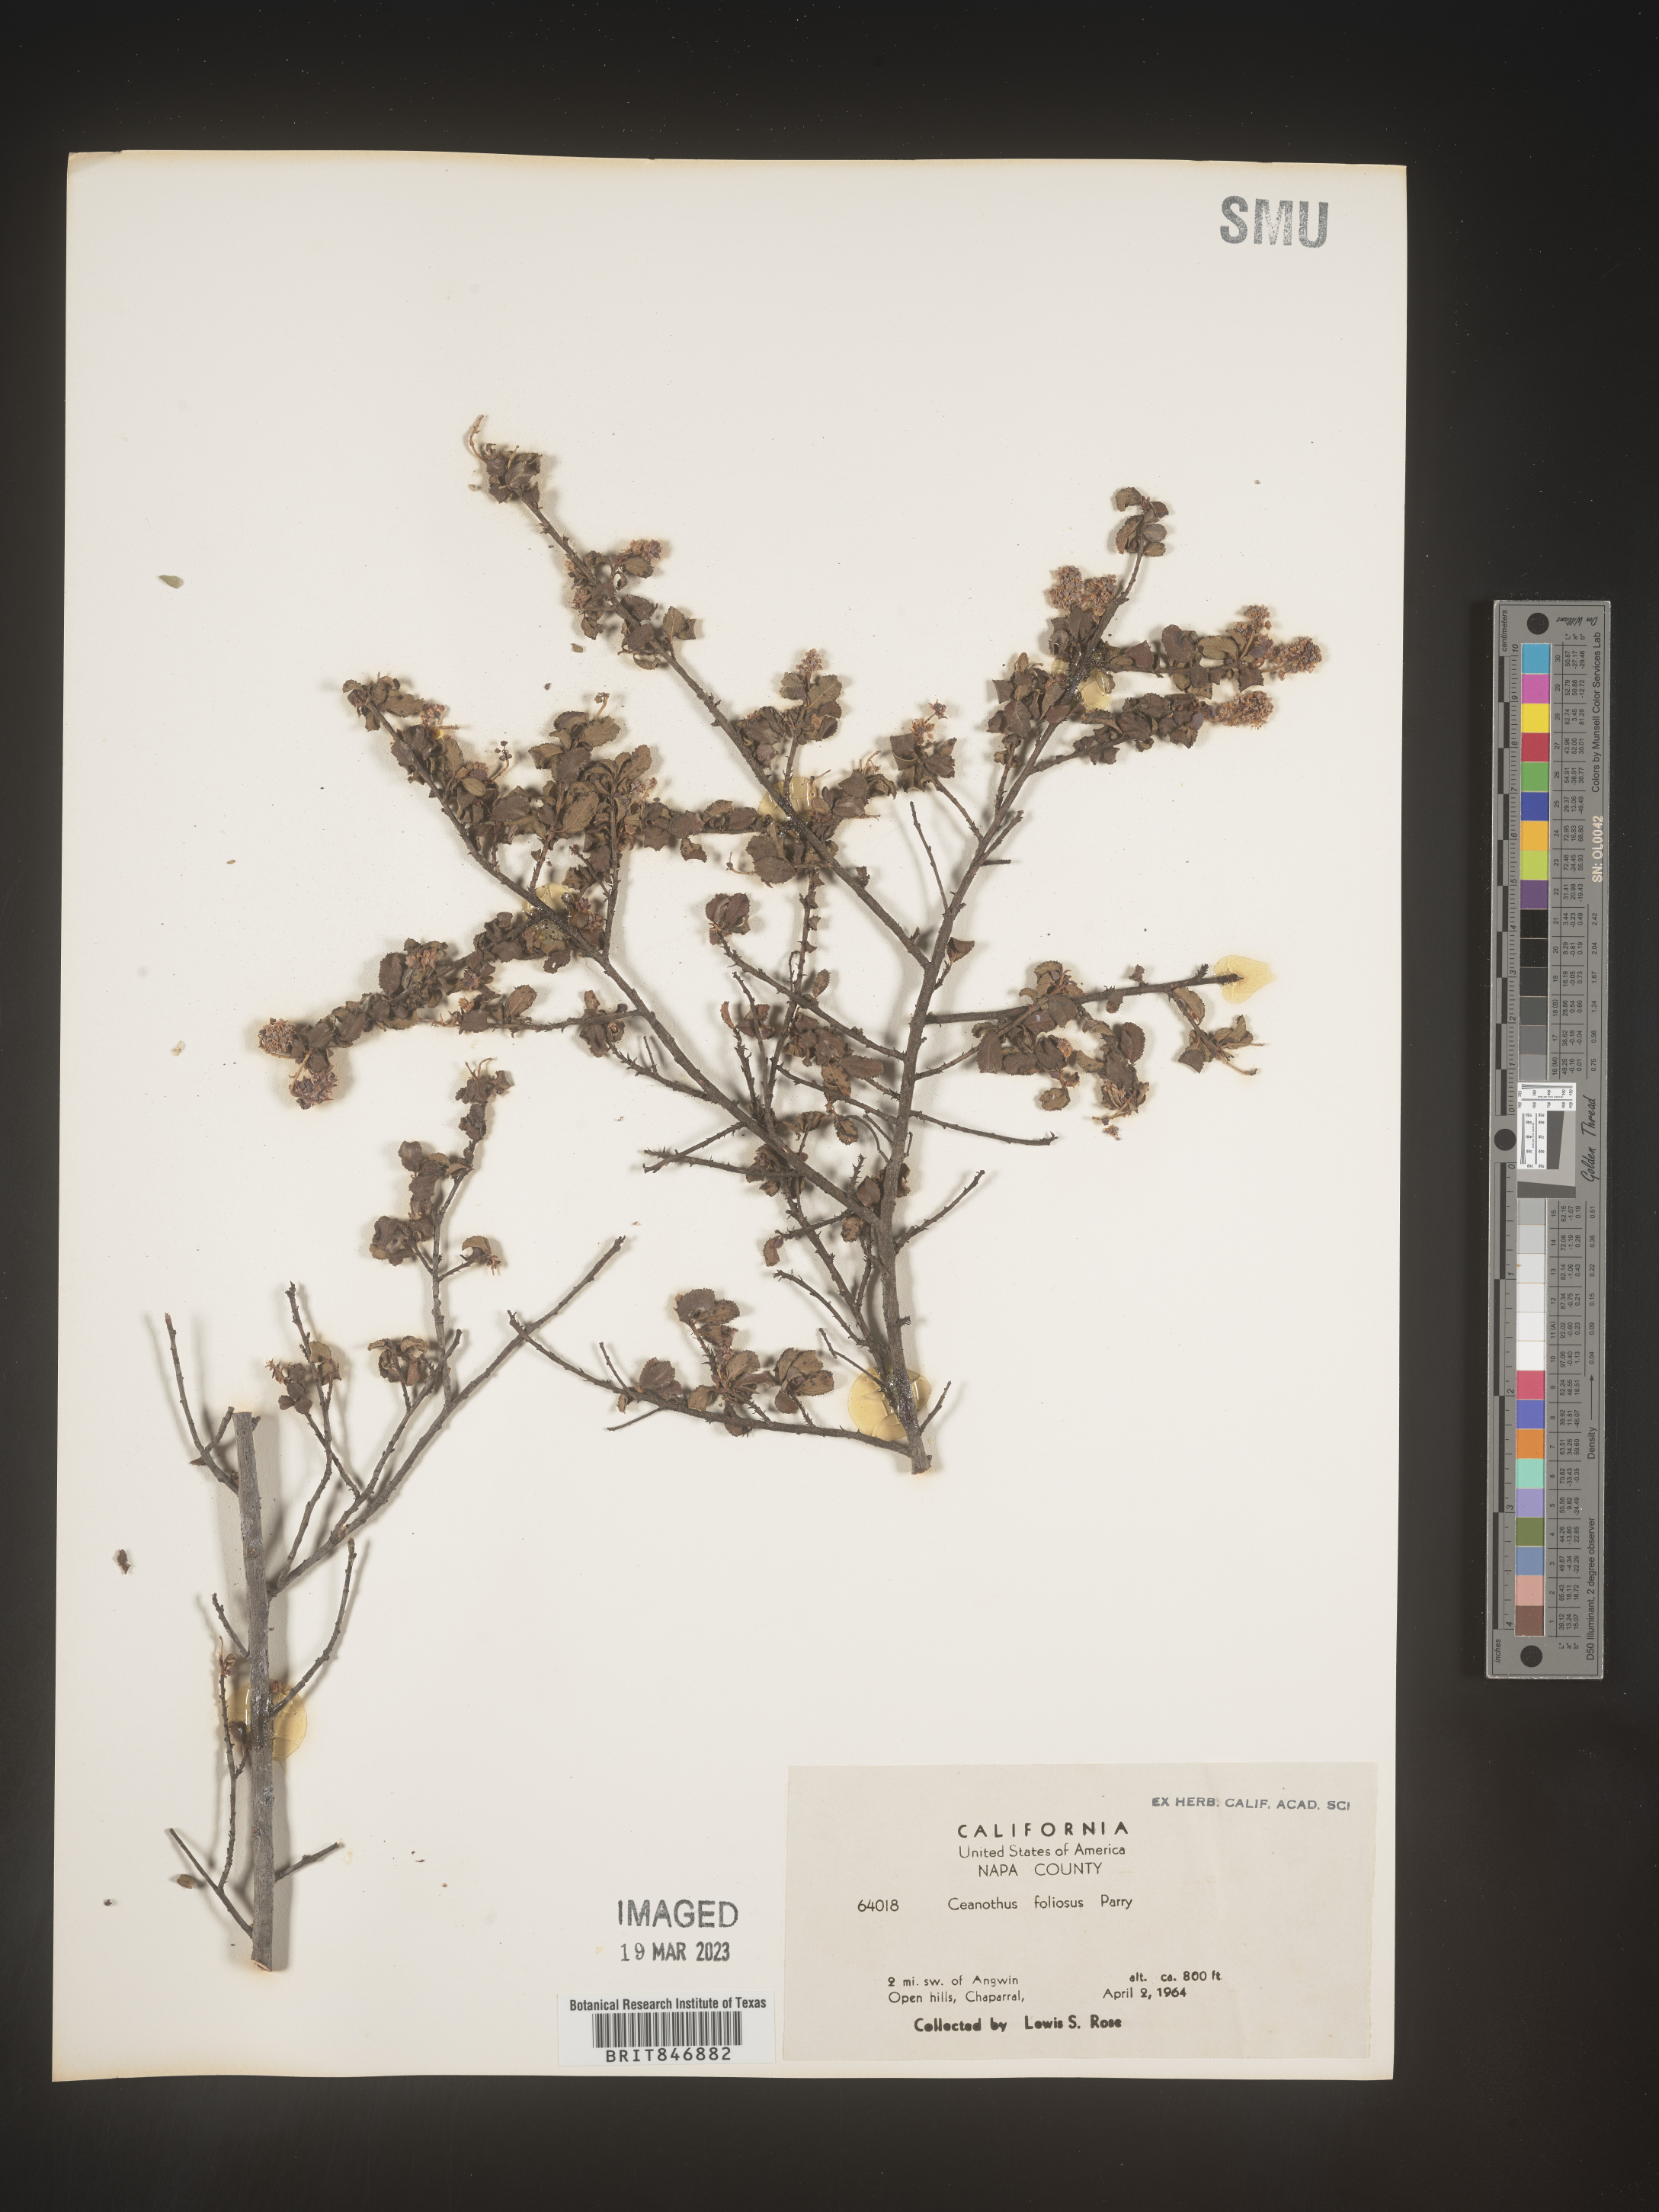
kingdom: Plantae
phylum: Tracheophyta
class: Magnoliopsida
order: Rosales
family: Rhamnaceae
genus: Ceanothus
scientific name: Ceanothus
